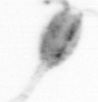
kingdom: Animalia
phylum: Arthropoda
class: Copepoda
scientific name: Copepoda
